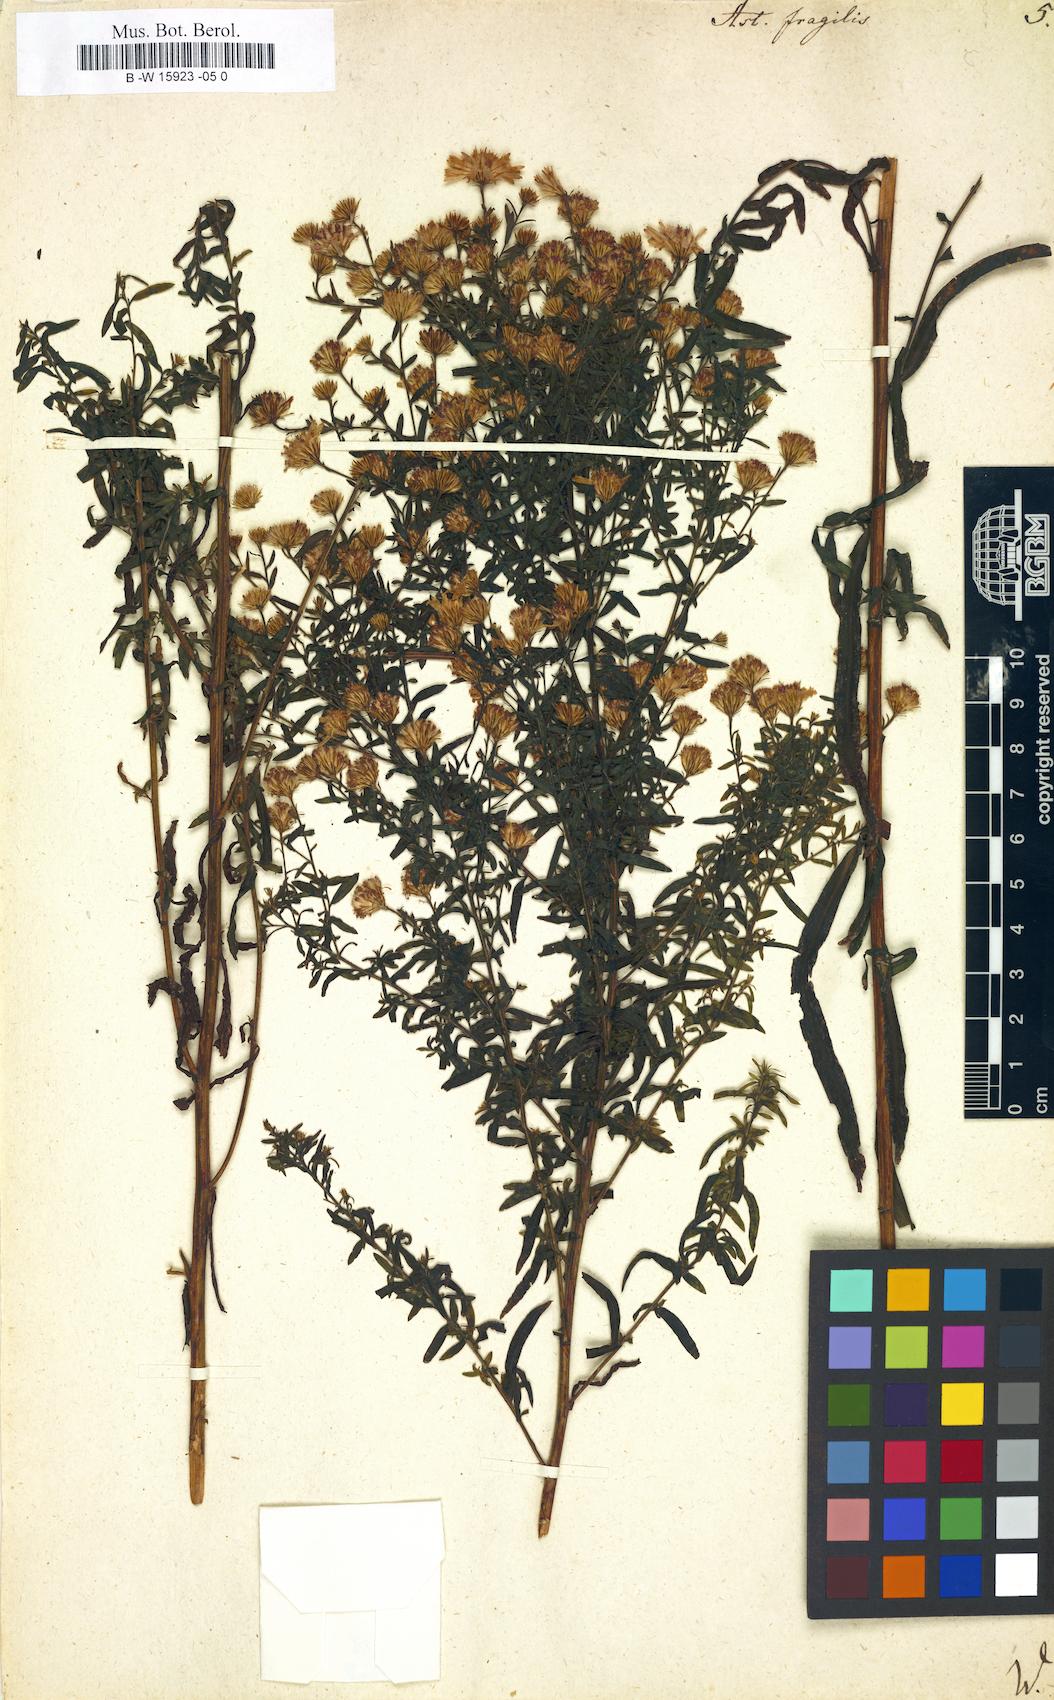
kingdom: Plantae
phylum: Tracheophyta
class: Magnoliopsida
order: Asterales
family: Asteraceae
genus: Aster
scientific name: Aster fragilis
